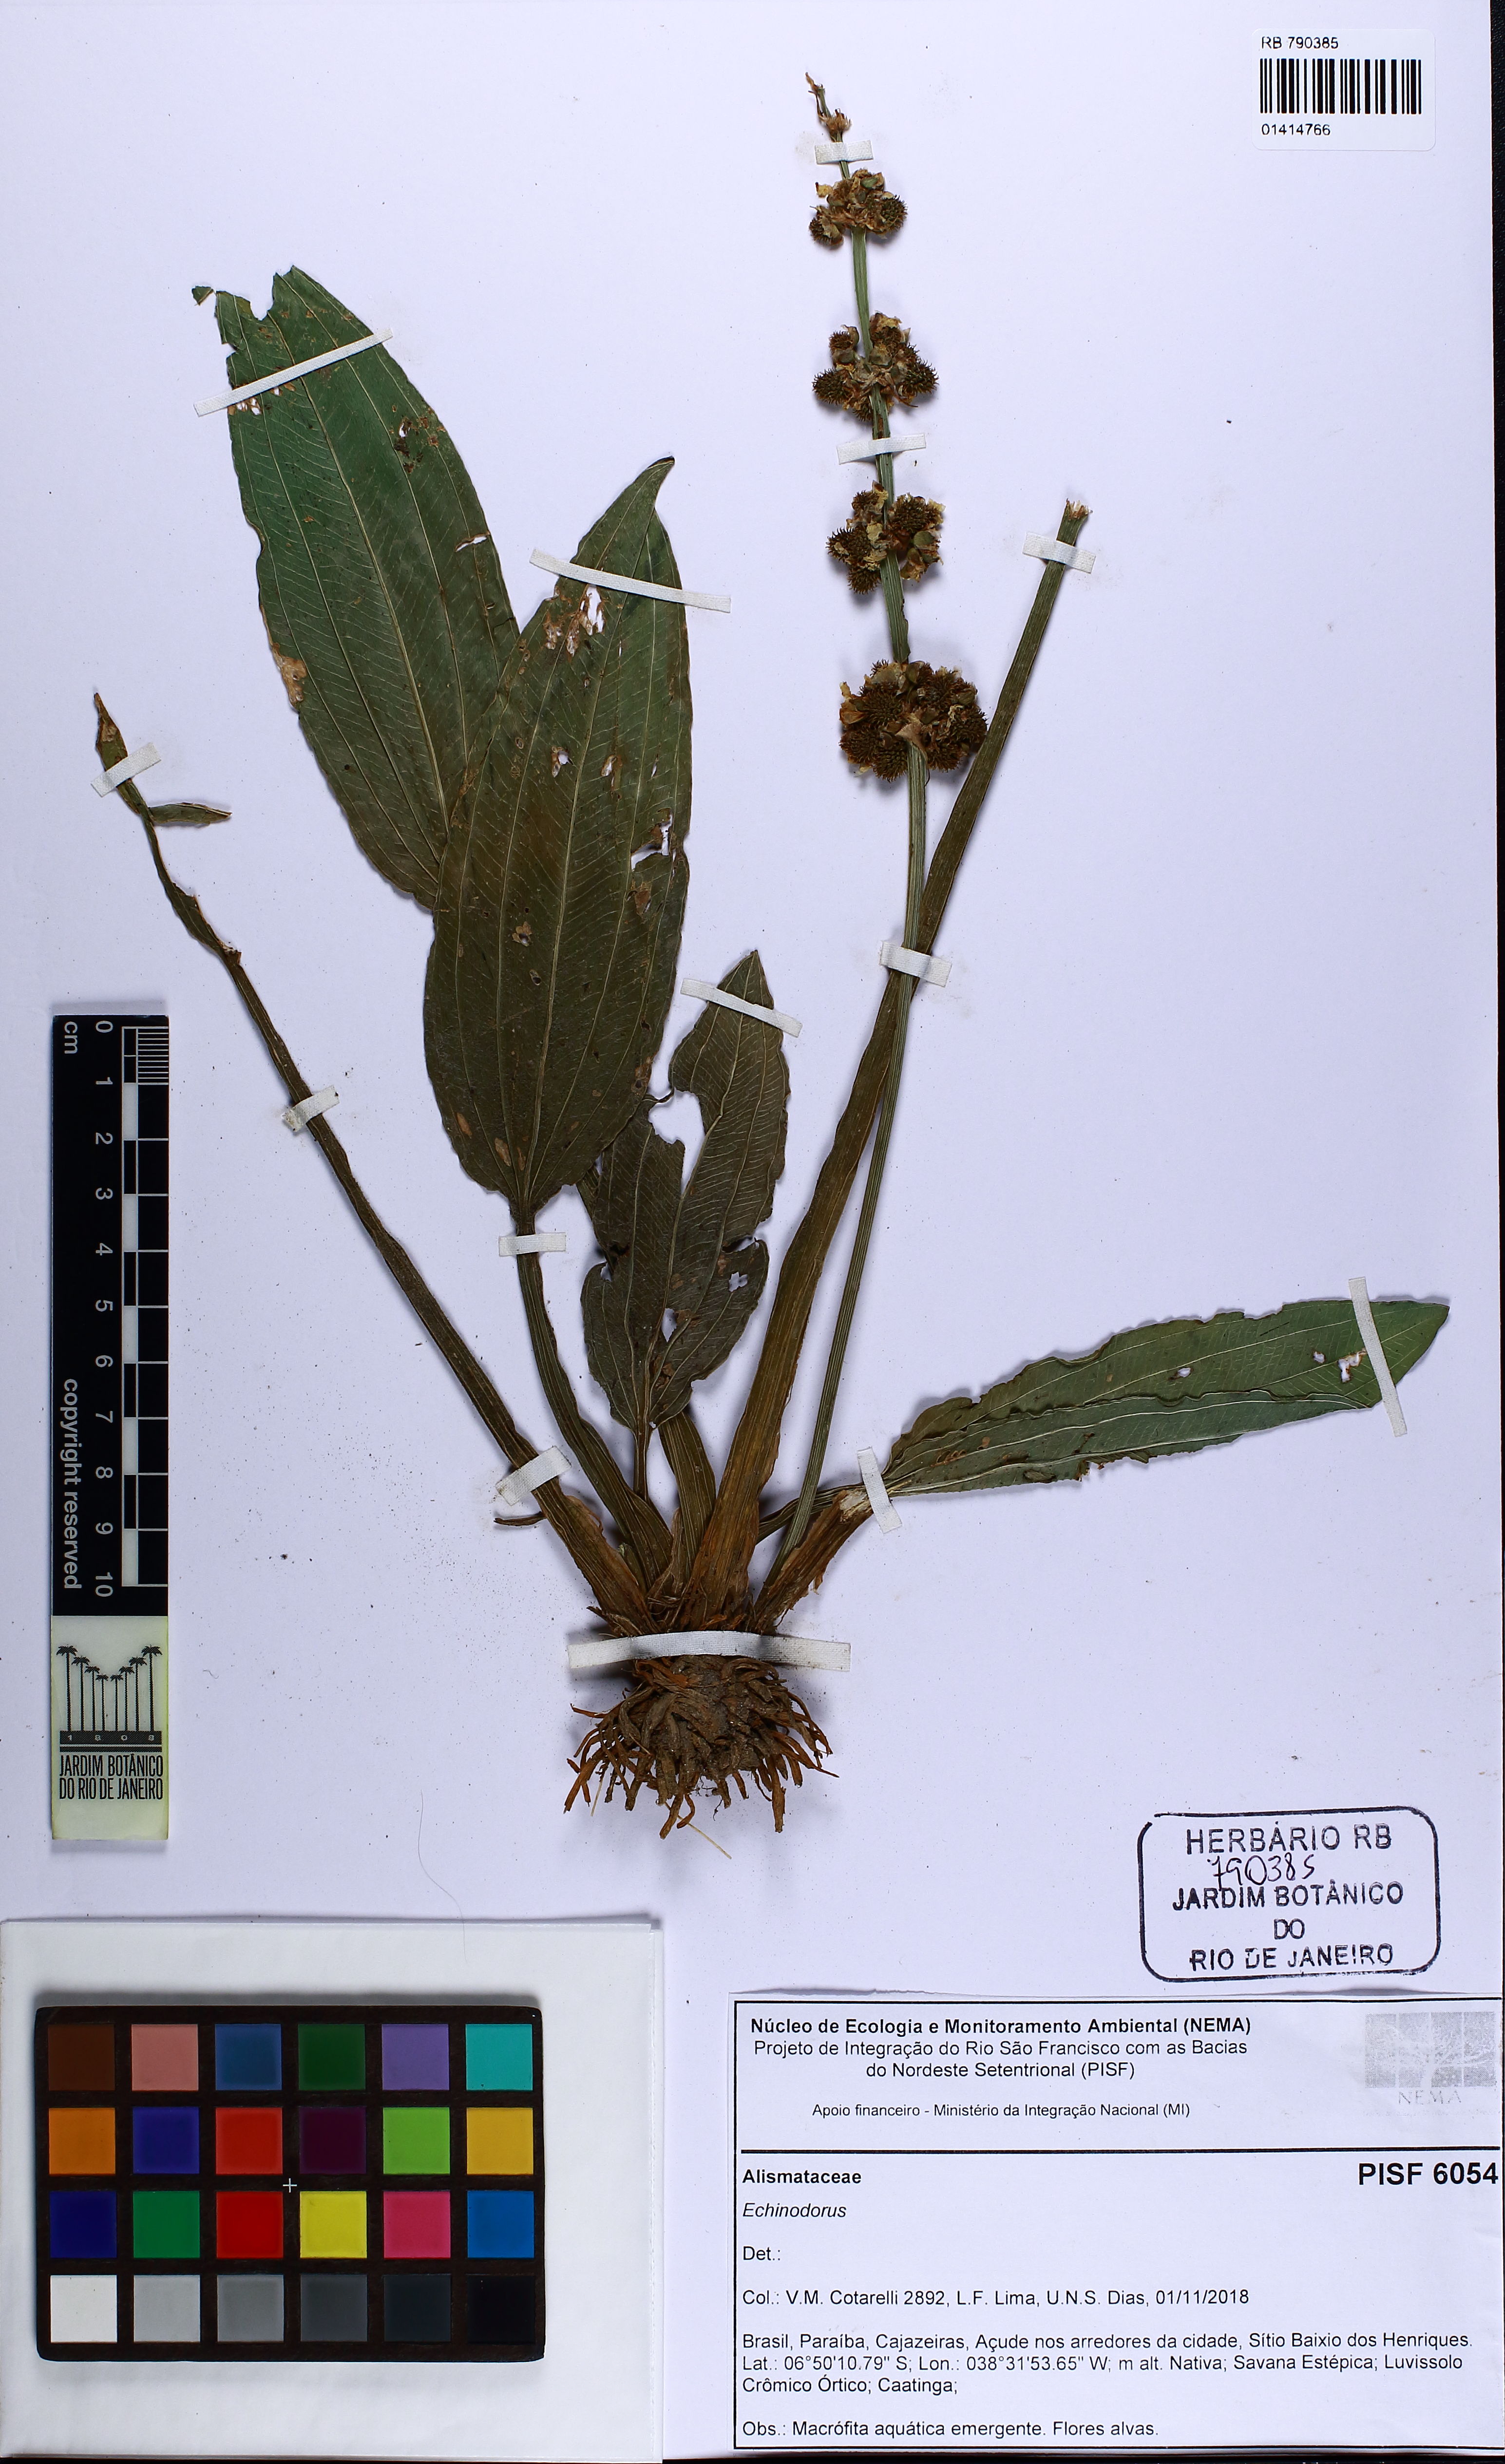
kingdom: Plantae
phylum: Tracheophyta
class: Liliopsida
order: Alismatales
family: Alismataceae
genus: Echinodorus
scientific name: Echinodorus
